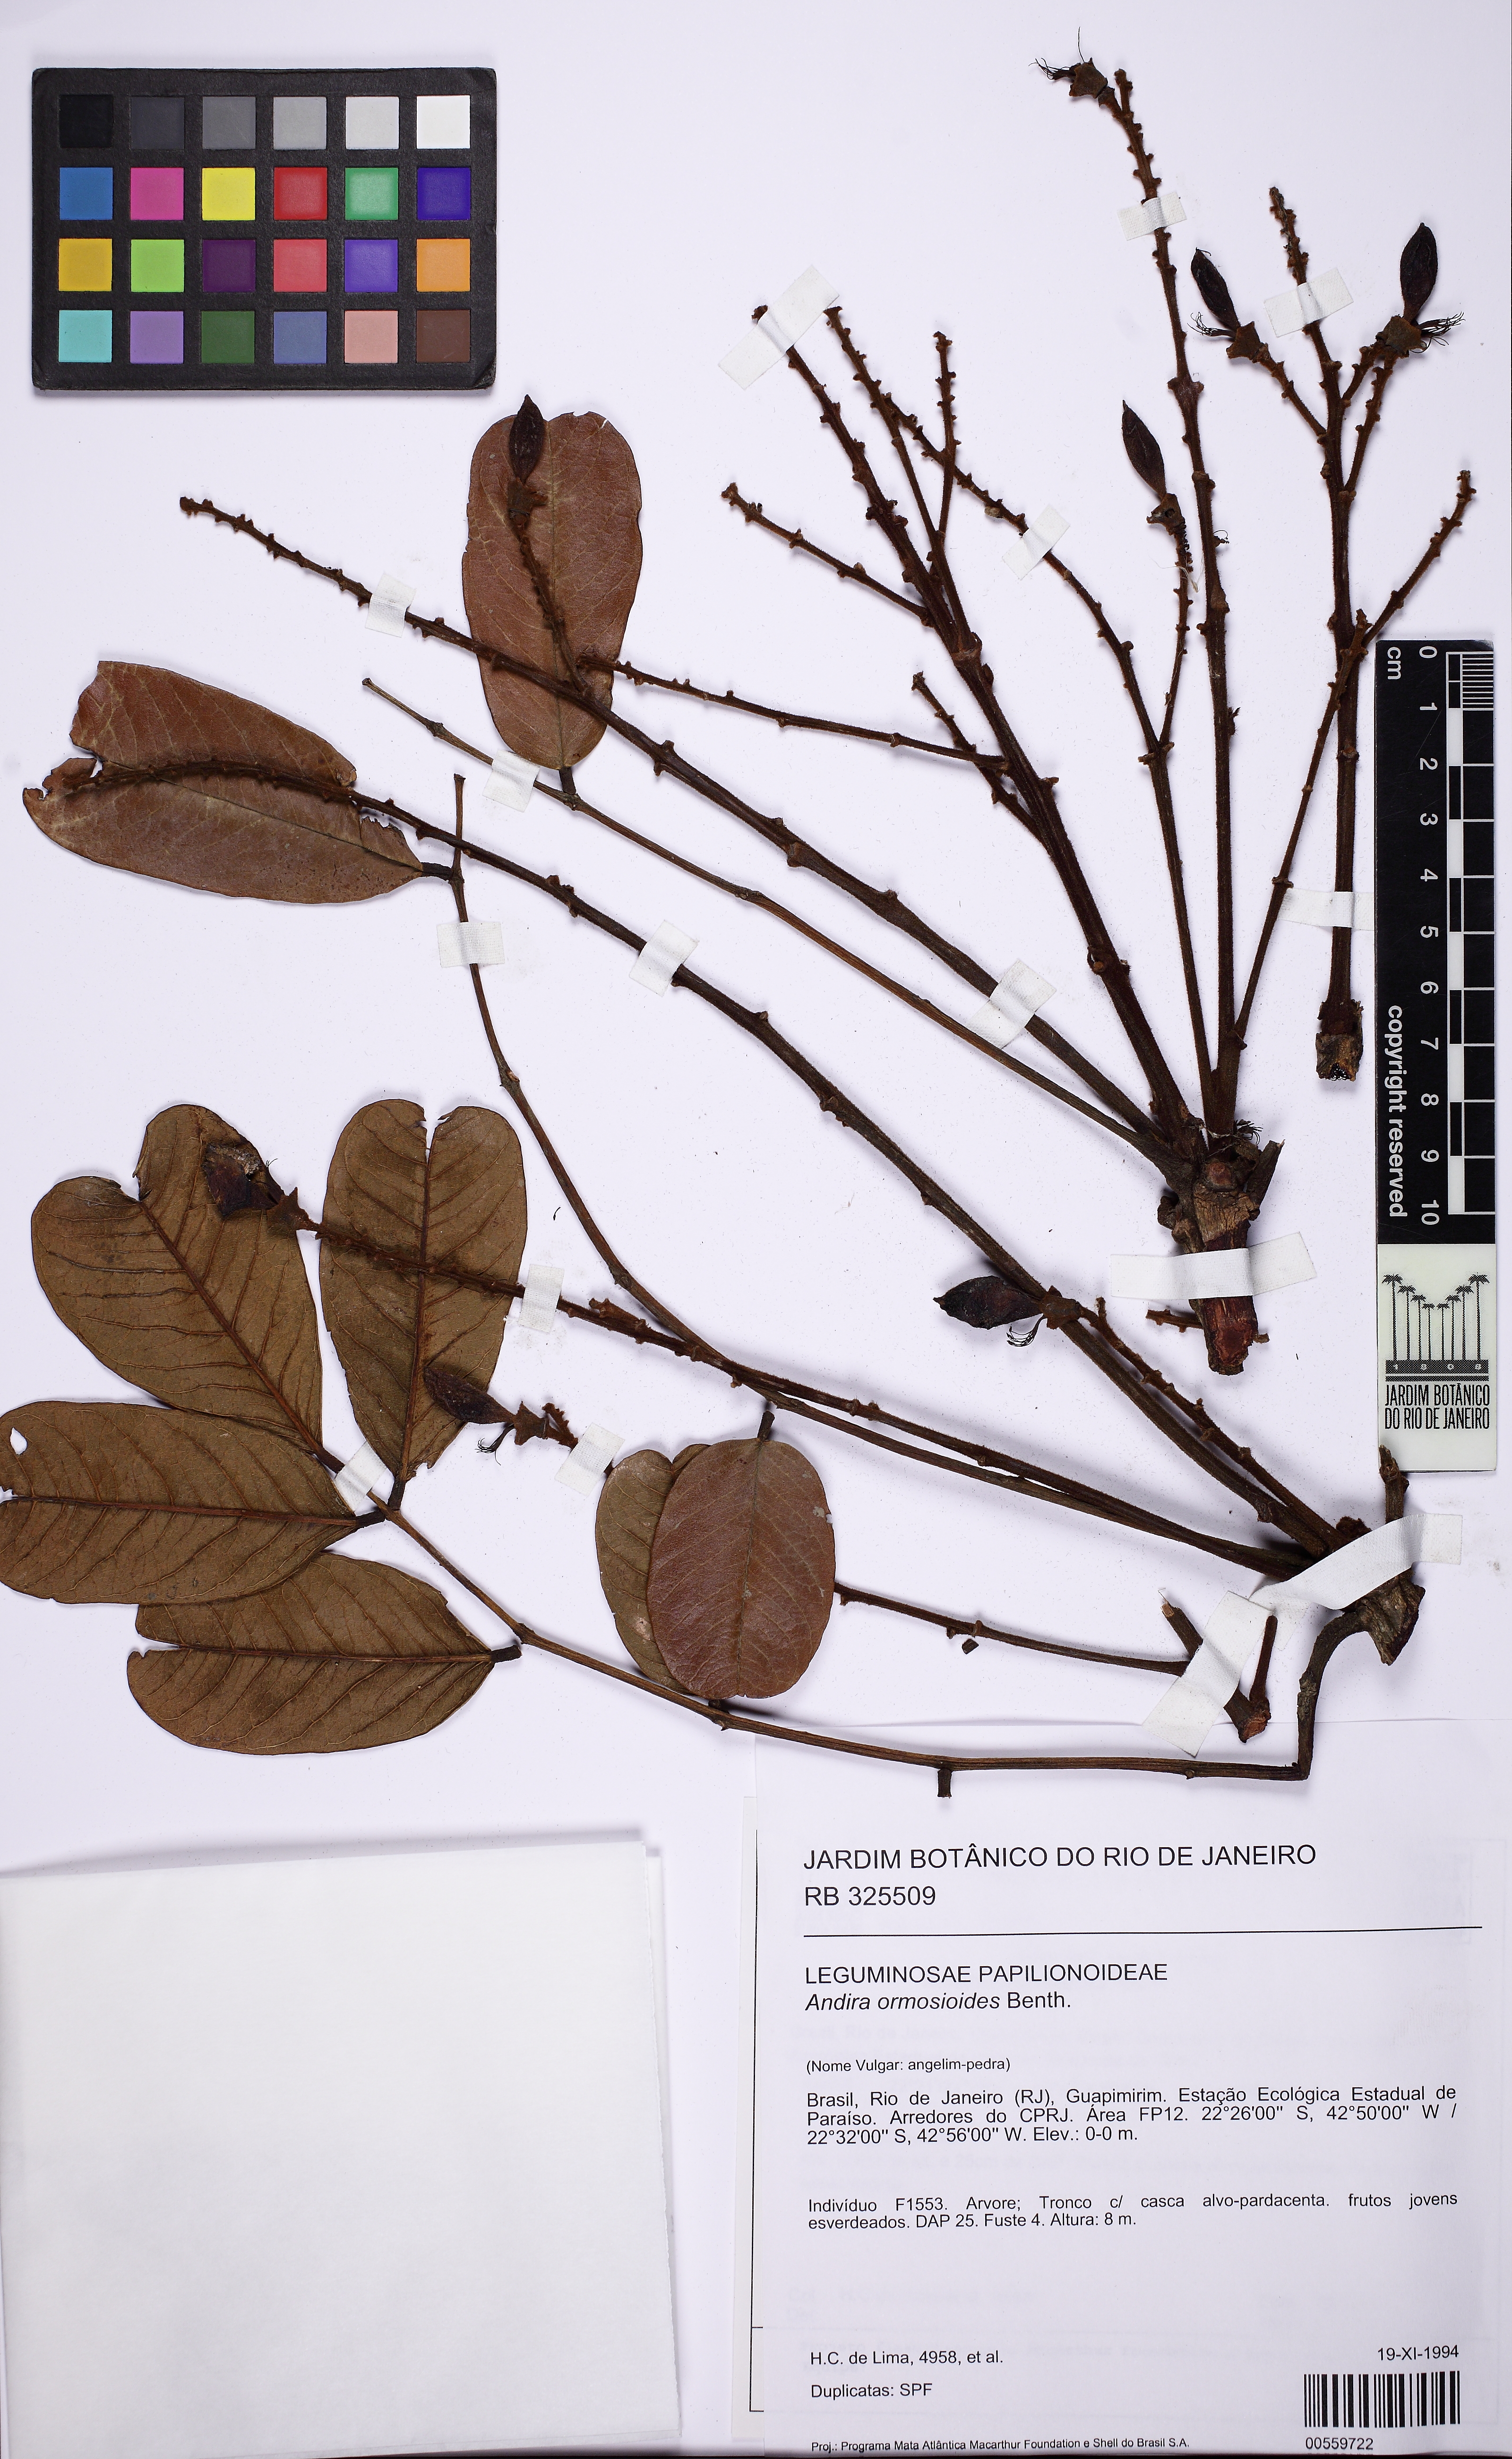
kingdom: Plantae
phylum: Tracheophyta
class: Magnoliopsida
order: Fabales
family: Fabaceae
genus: Andira
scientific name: Andira ormosioides
